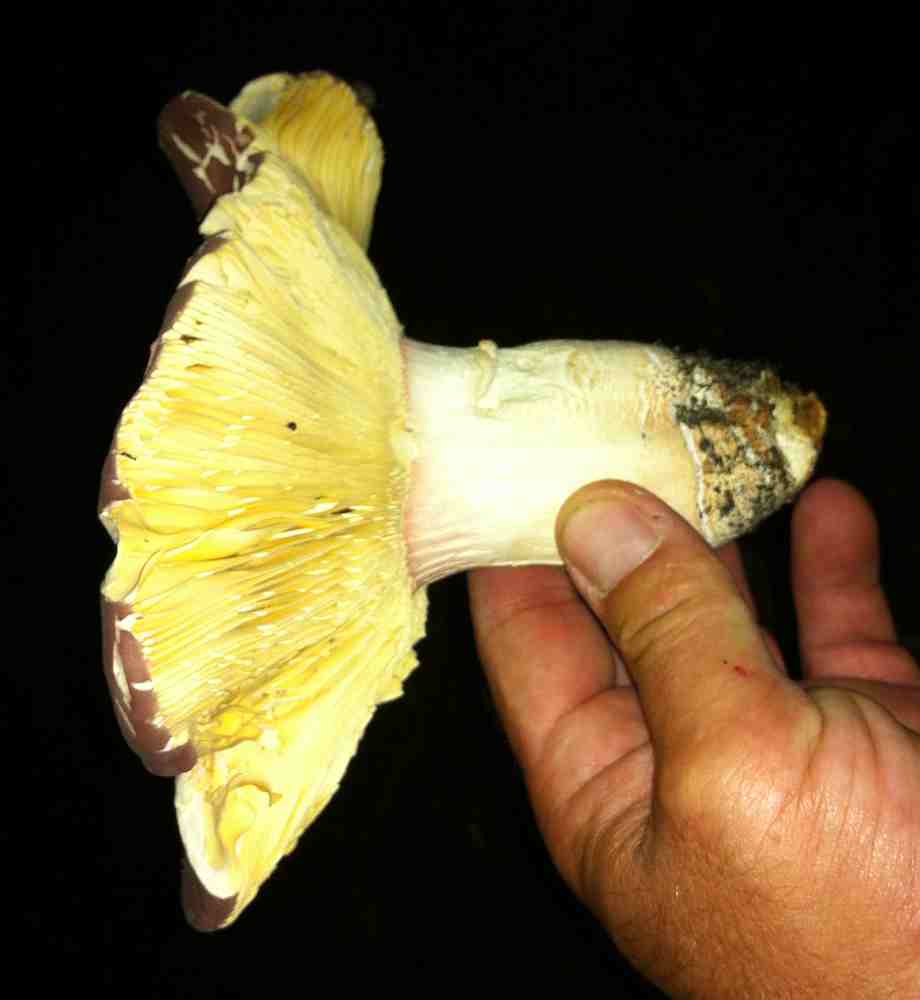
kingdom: Fungi
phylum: Basidiomycota
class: Agaricomycetes
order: Russulales
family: Russulaceae
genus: Russula
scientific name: Russula olivacea
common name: stor skørhat
